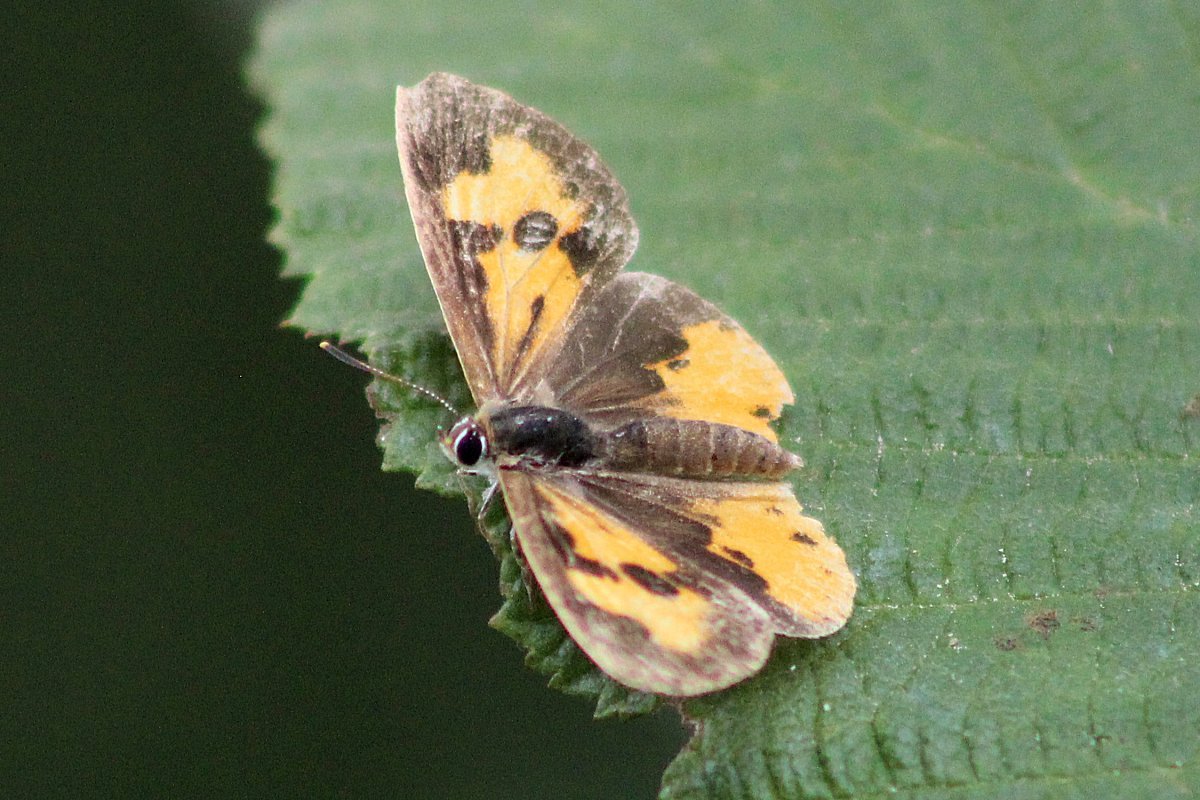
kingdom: Animalia
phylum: Arthropoda
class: Insecta
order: Lepidoptera
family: Lycaenidae
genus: Feniseca
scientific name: Feniseca tarquinius
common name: Harvester
